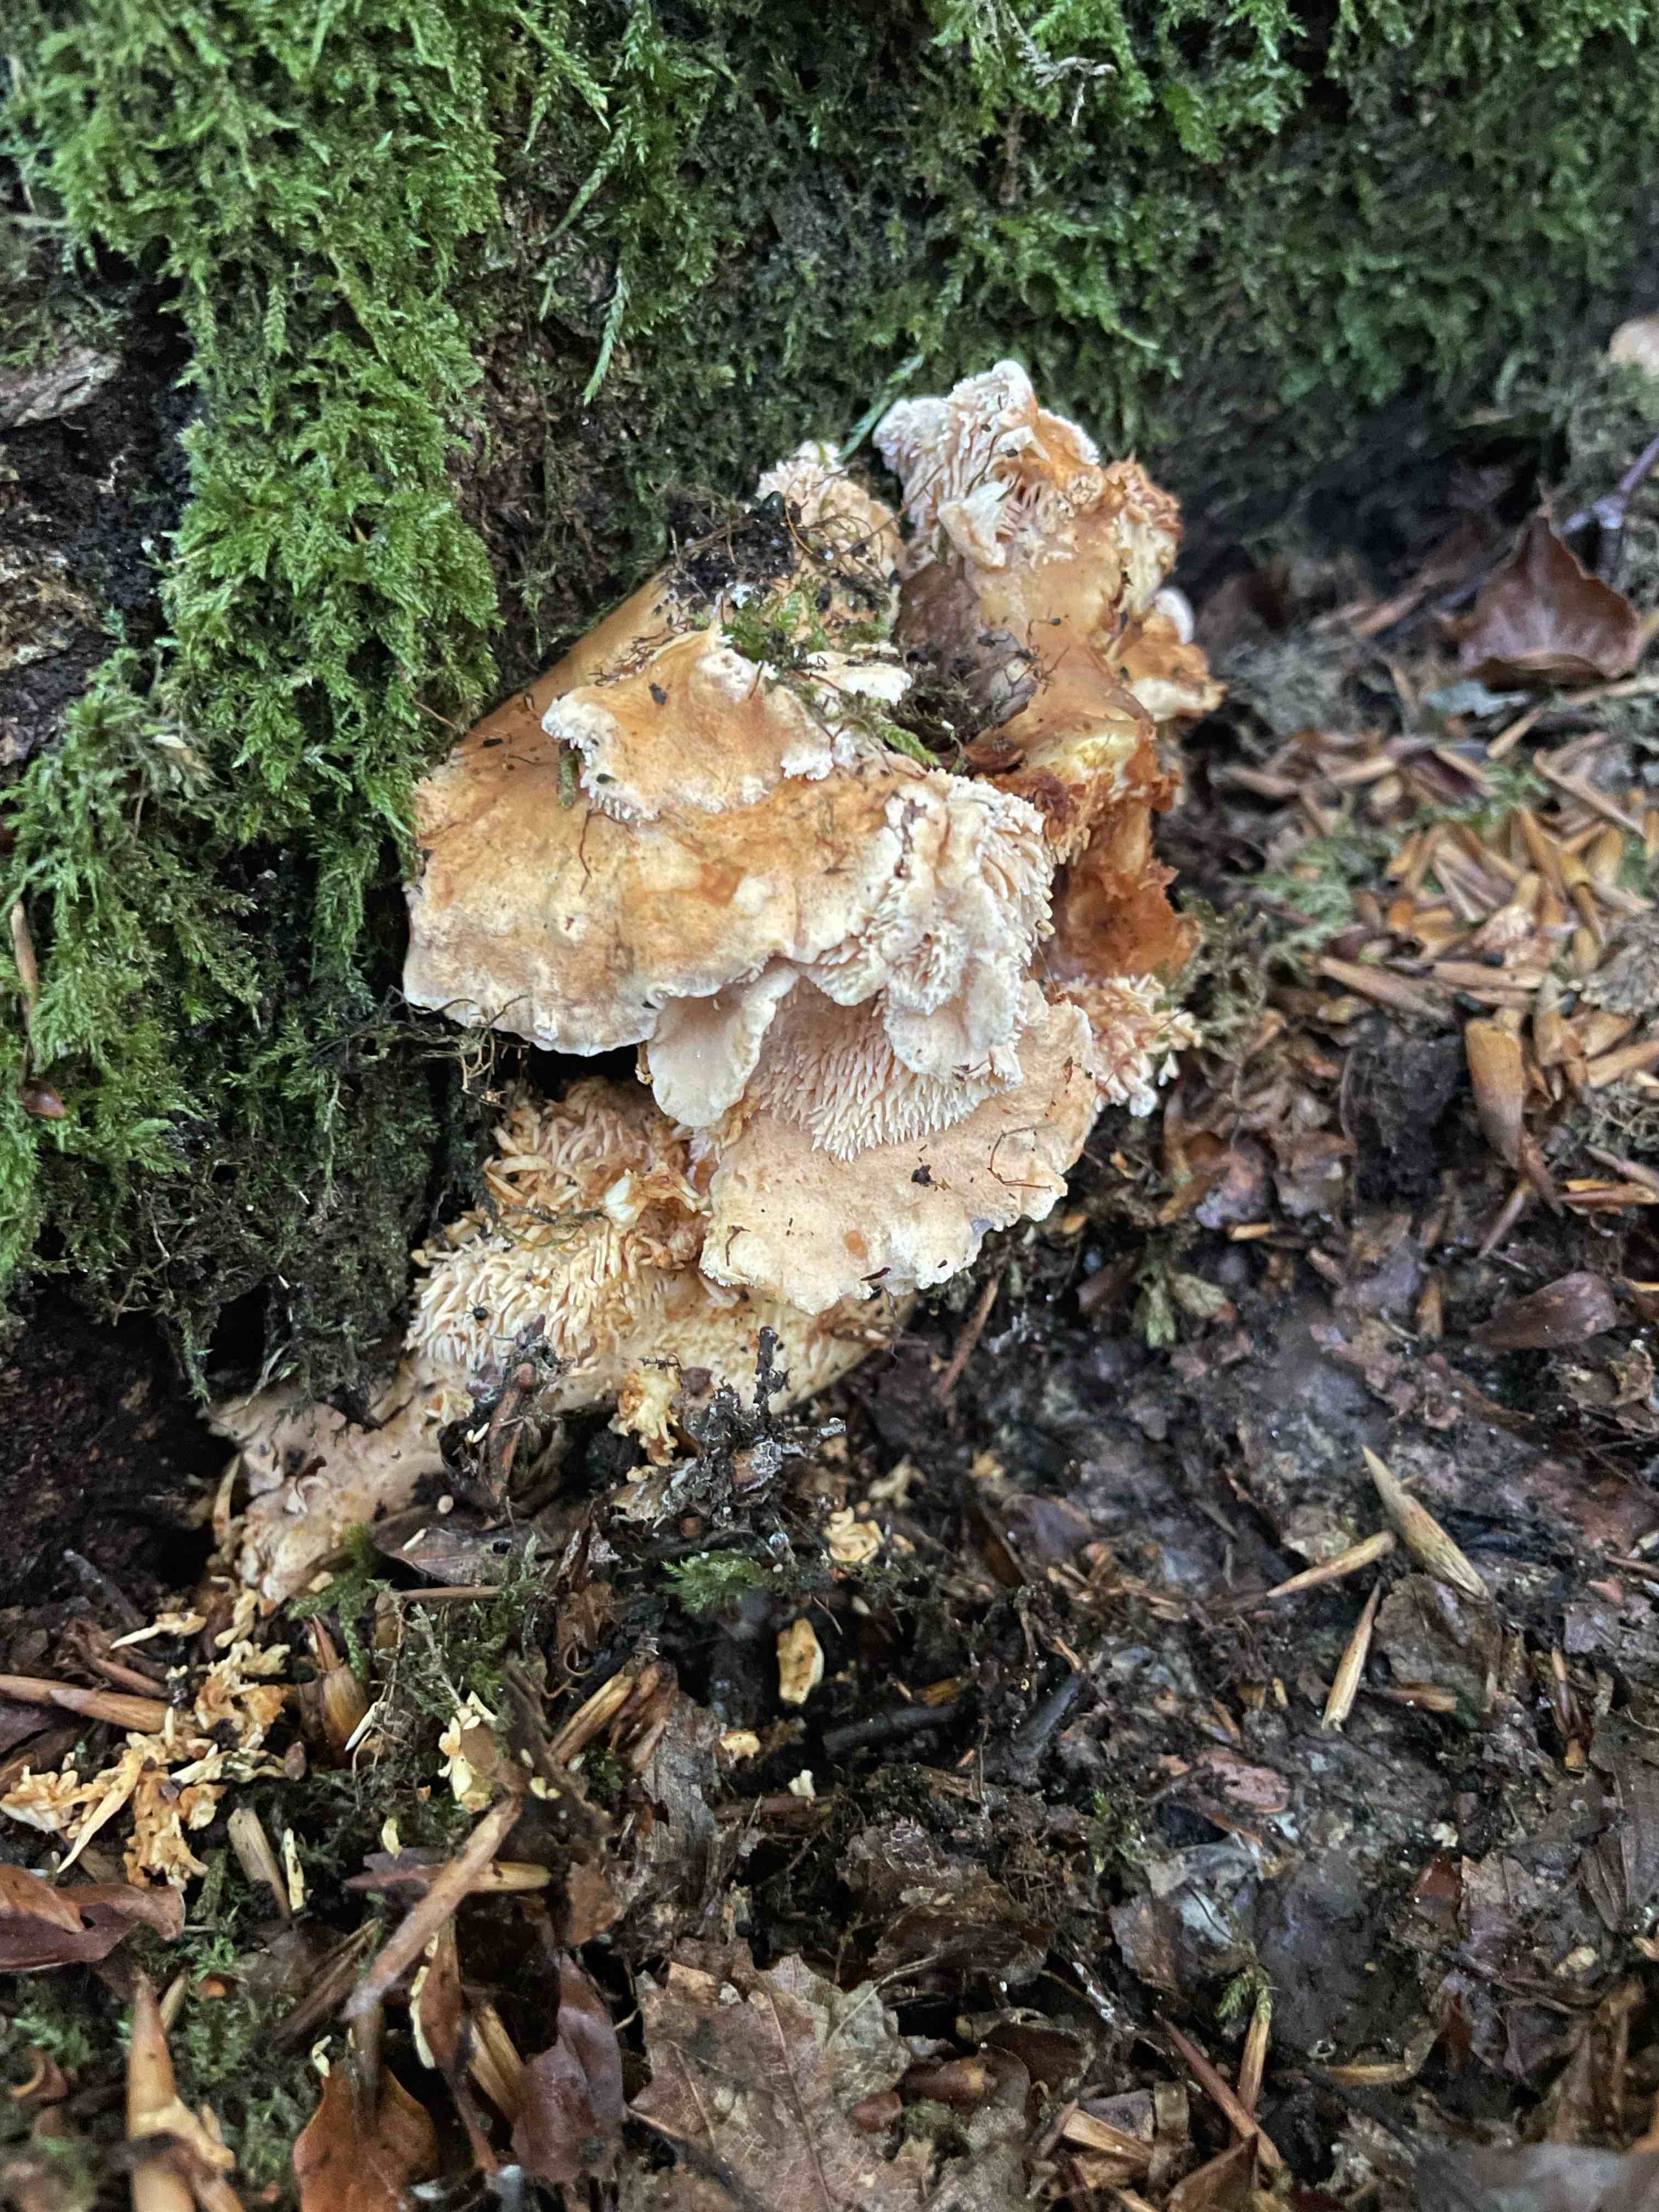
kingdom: Fungi
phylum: Basidiomycota
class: Agaricomycetes
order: Cantharellales
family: Hydnaceae
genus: Hydnum
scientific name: Hydnum
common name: pigsvamp
